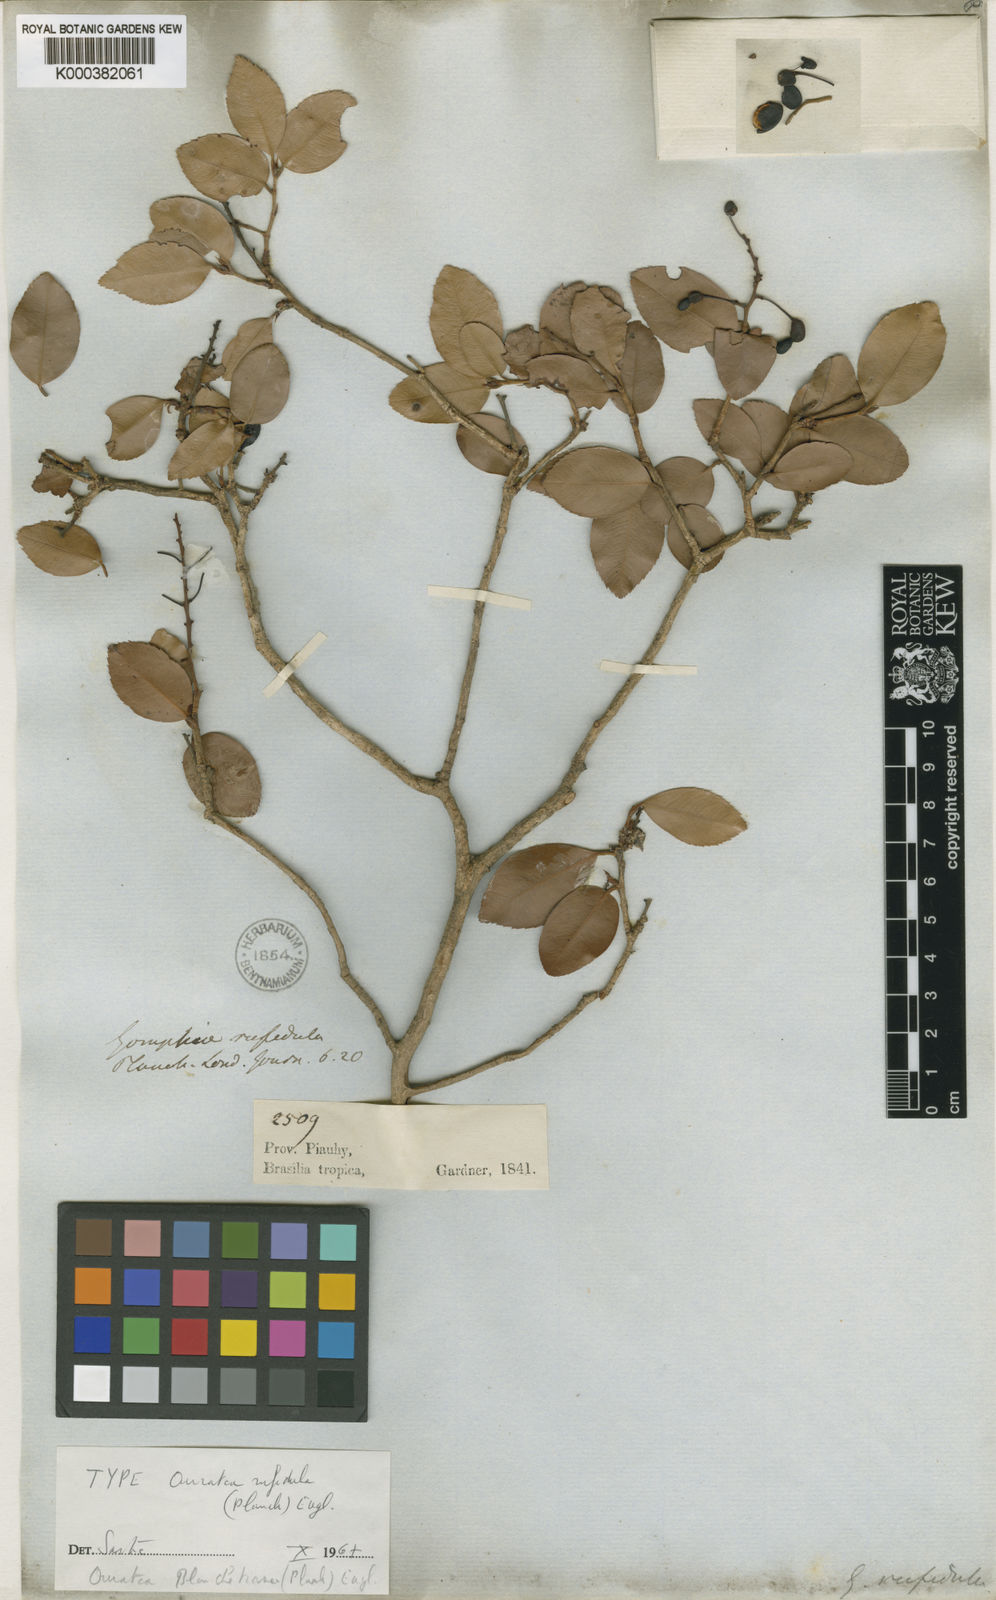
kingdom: Plantae
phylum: Tracheophyta
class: Magnoliopsida
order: Malpighiales
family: Ochnaceae
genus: Ouratea
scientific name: Ouratea blanchetiana
